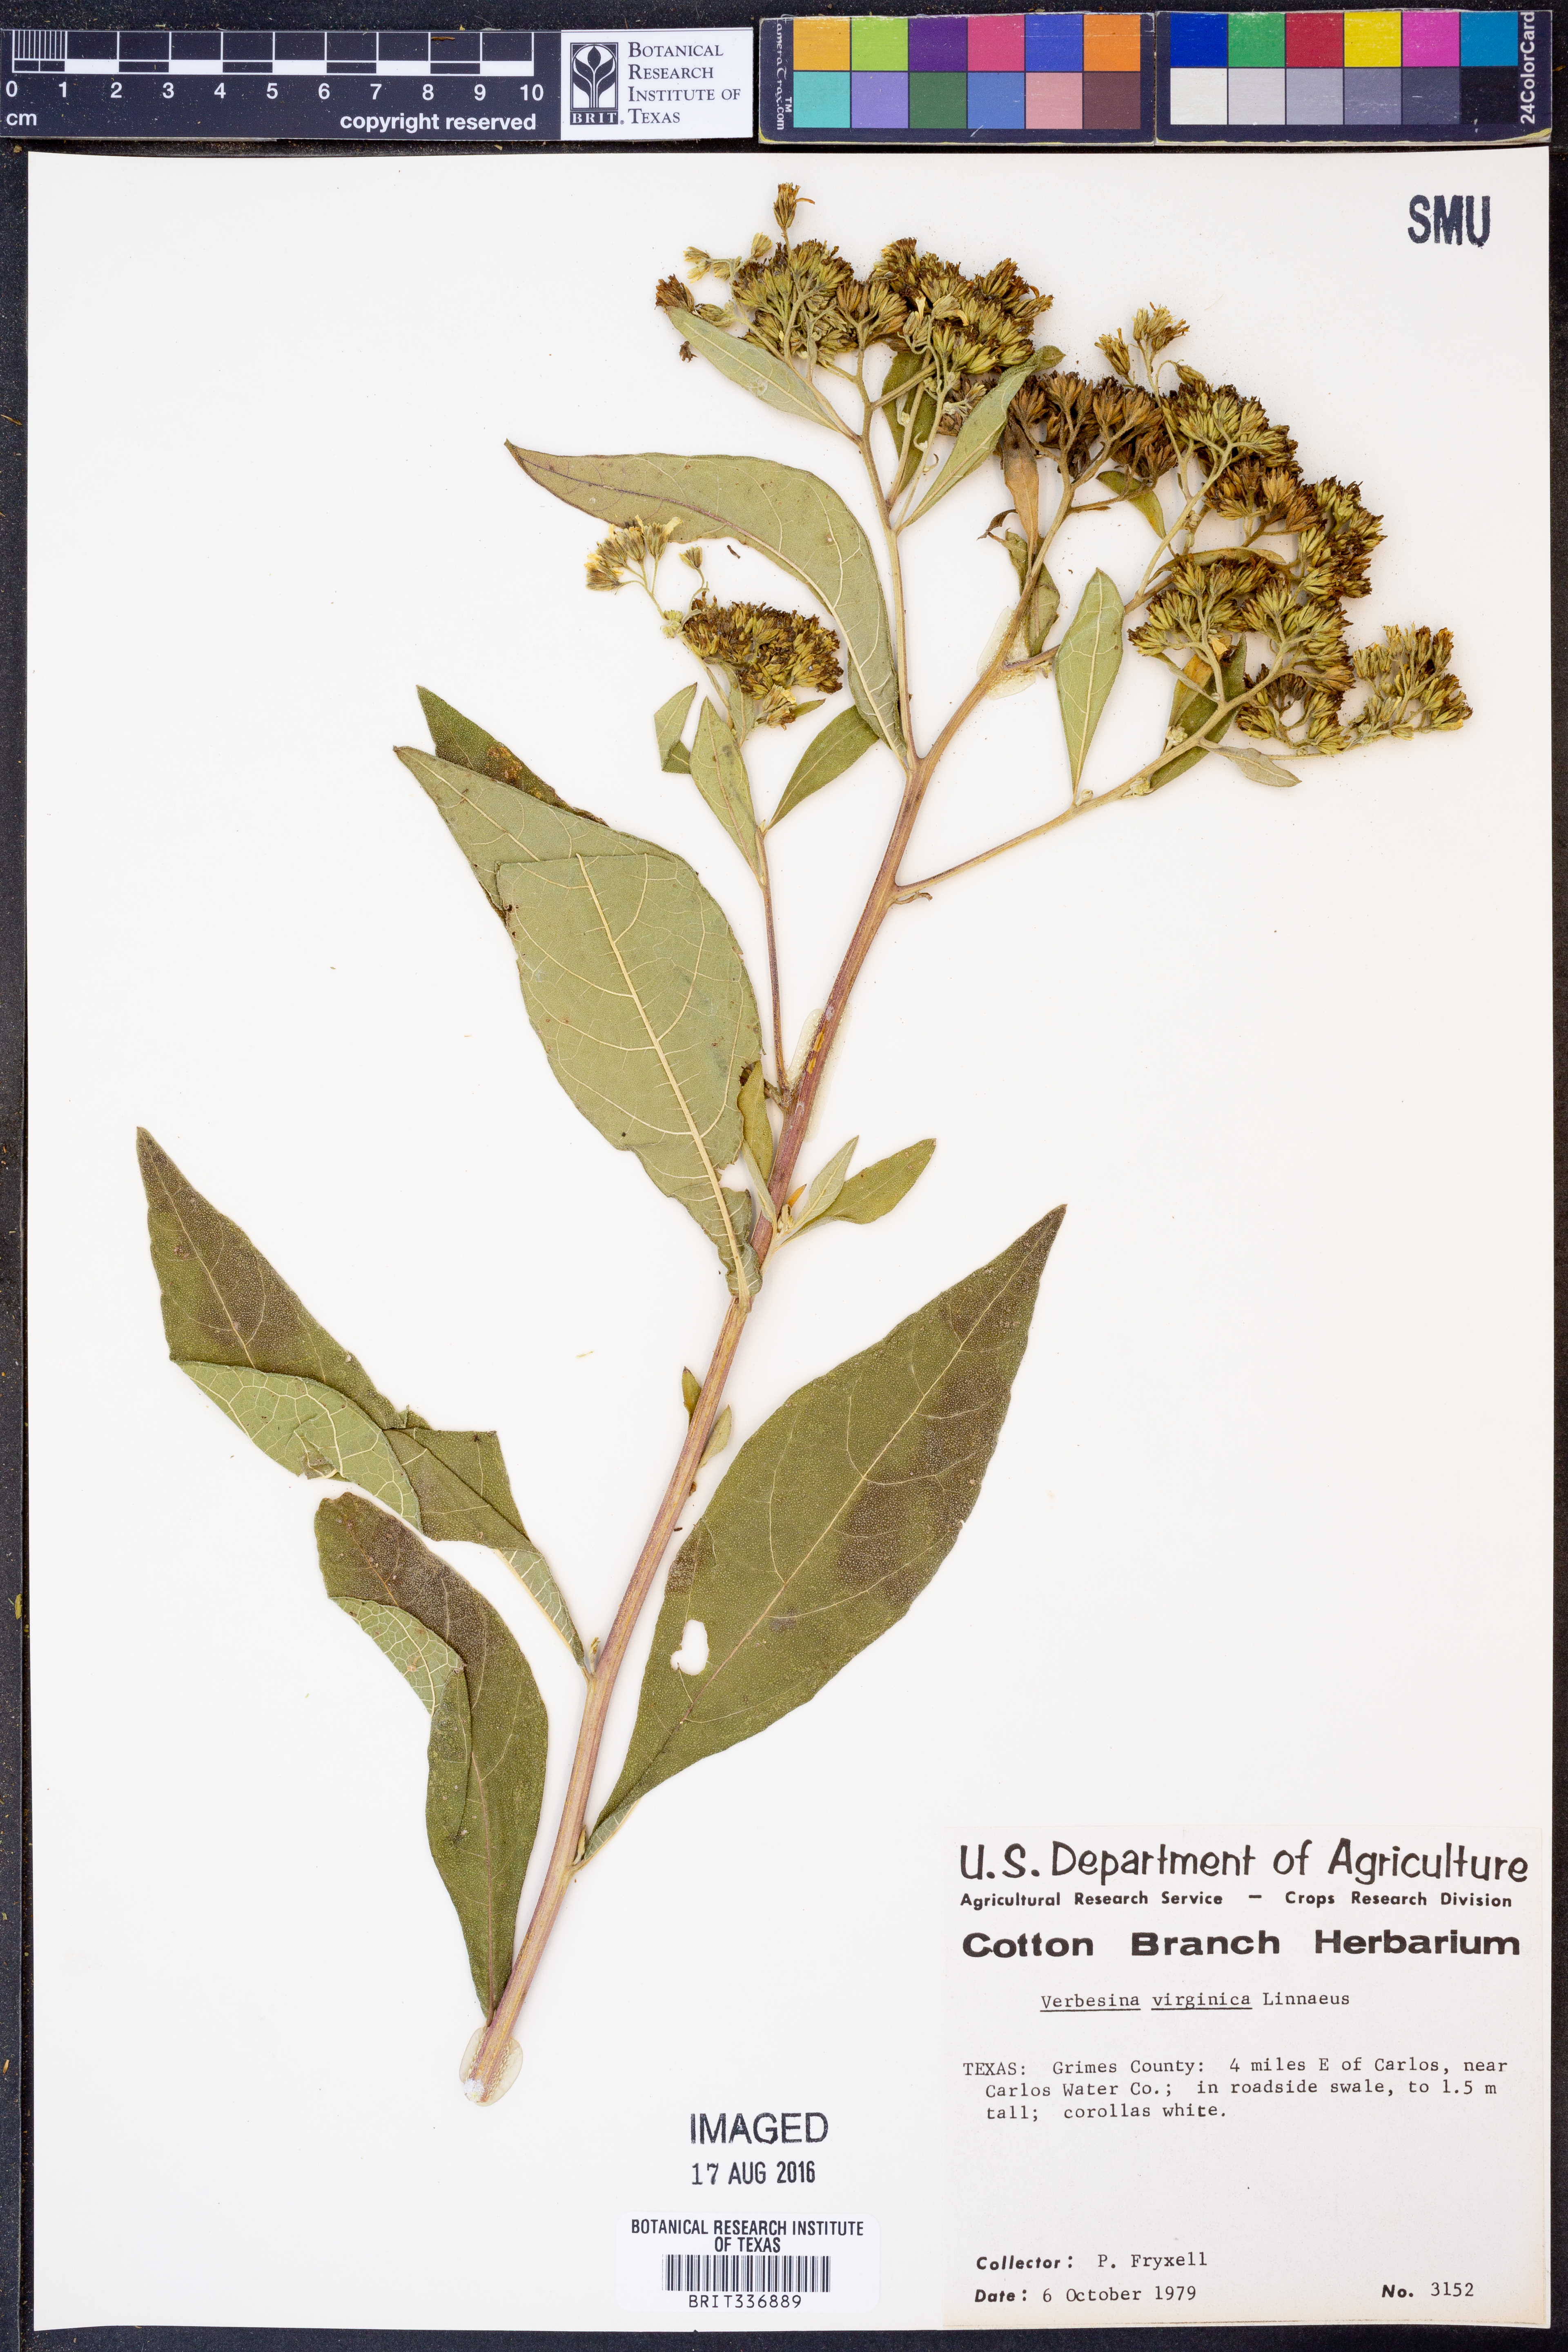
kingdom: Plantae
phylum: Tracheophyta
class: Magnoliopsida
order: Asterales
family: Asteraceae
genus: Verbesina
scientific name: Verbesina virginica
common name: Frostweed
